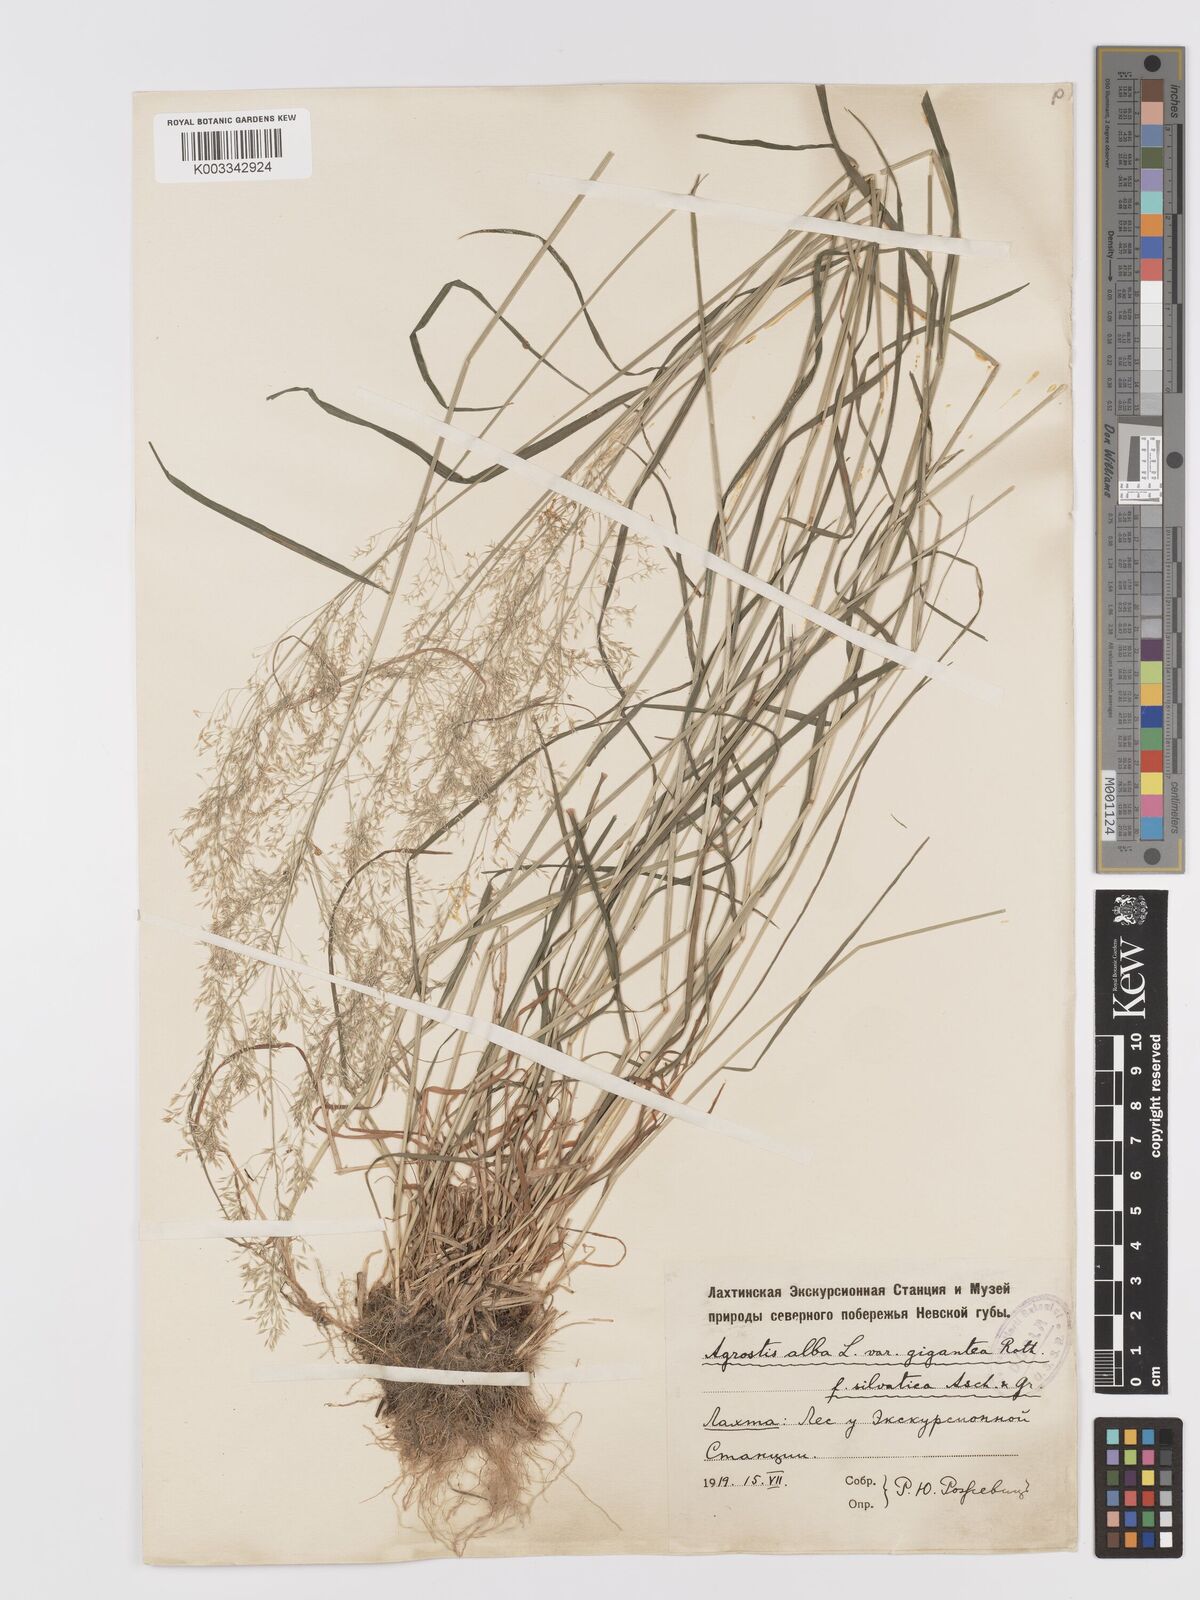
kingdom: Plantae
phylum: Tracheophyta
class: Liliopsida
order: Poales
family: Poaceae
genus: Agrostis
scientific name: Agrostis gigantea
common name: Black bent
